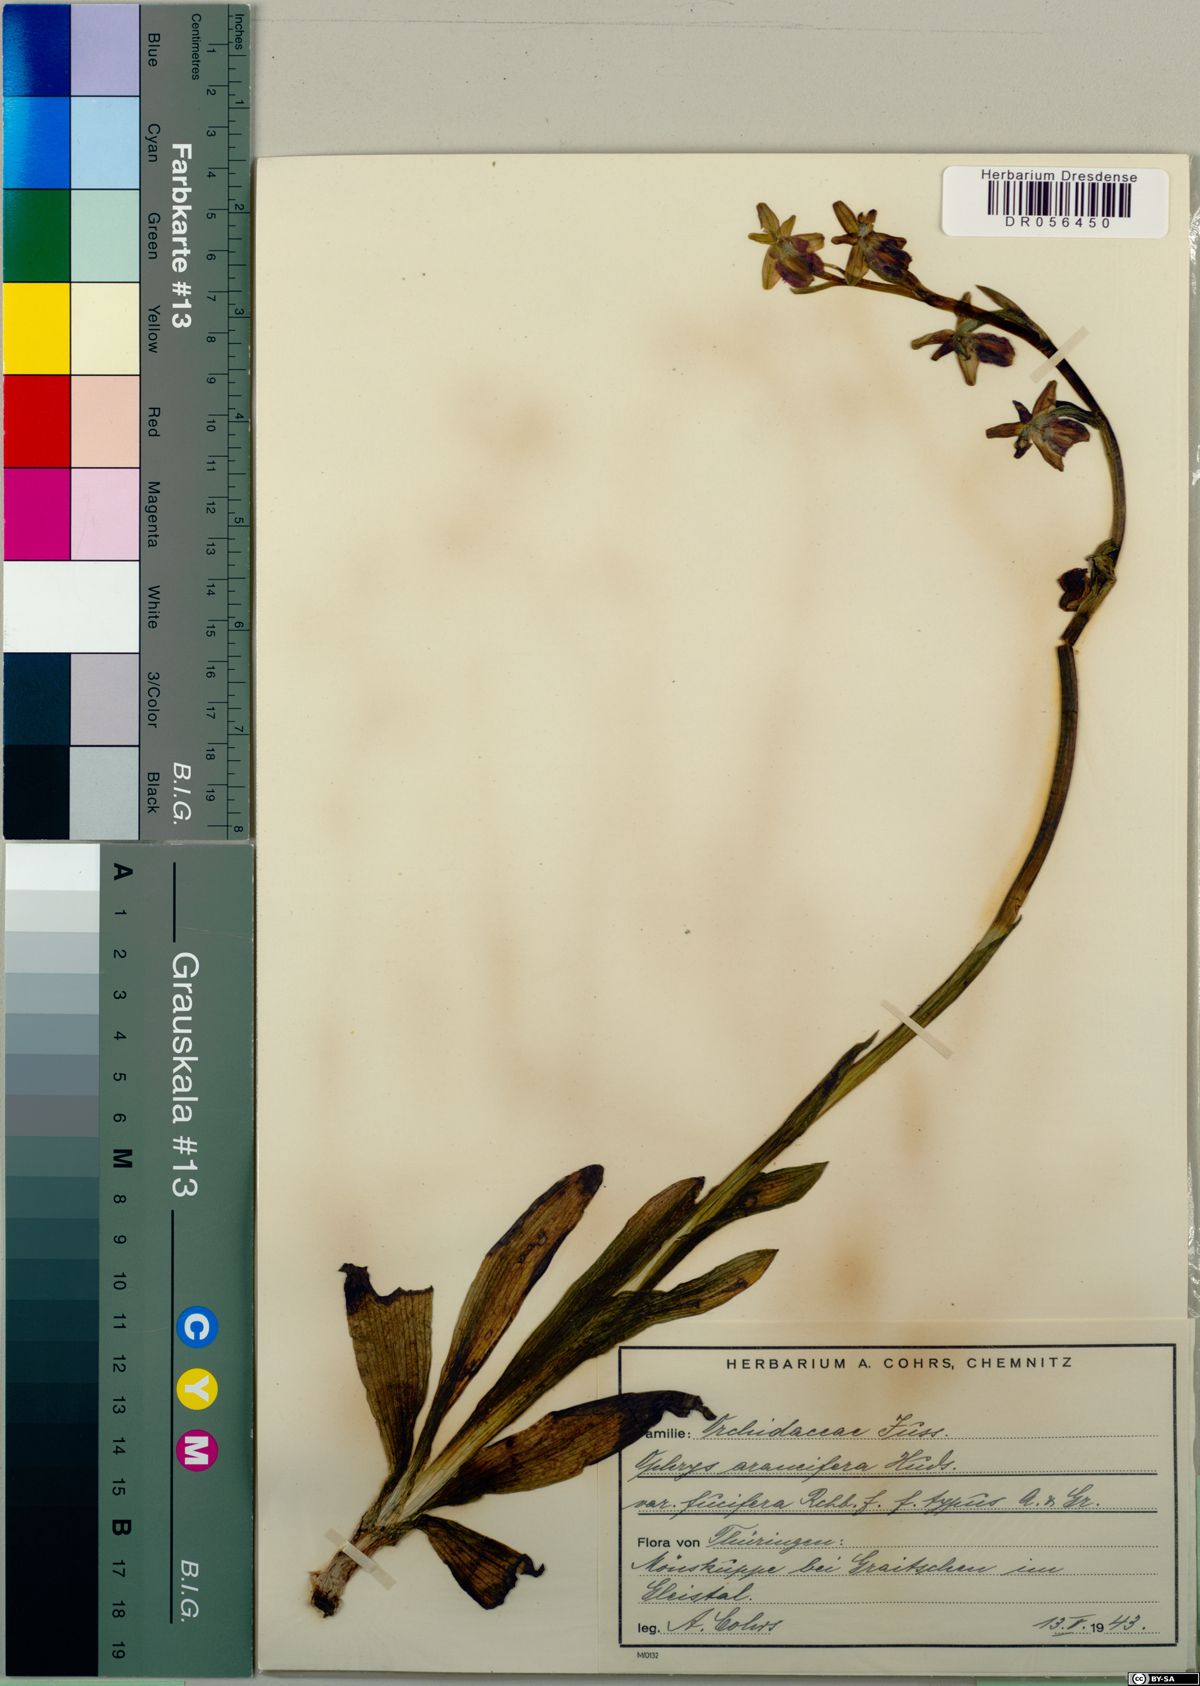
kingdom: Plantae
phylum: Tracheophyta
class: Liliopsida
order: Asparagales
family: Orchidaceae
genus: Ophrys
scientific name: Ophrys sphegodes
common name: Early spider-orchid
